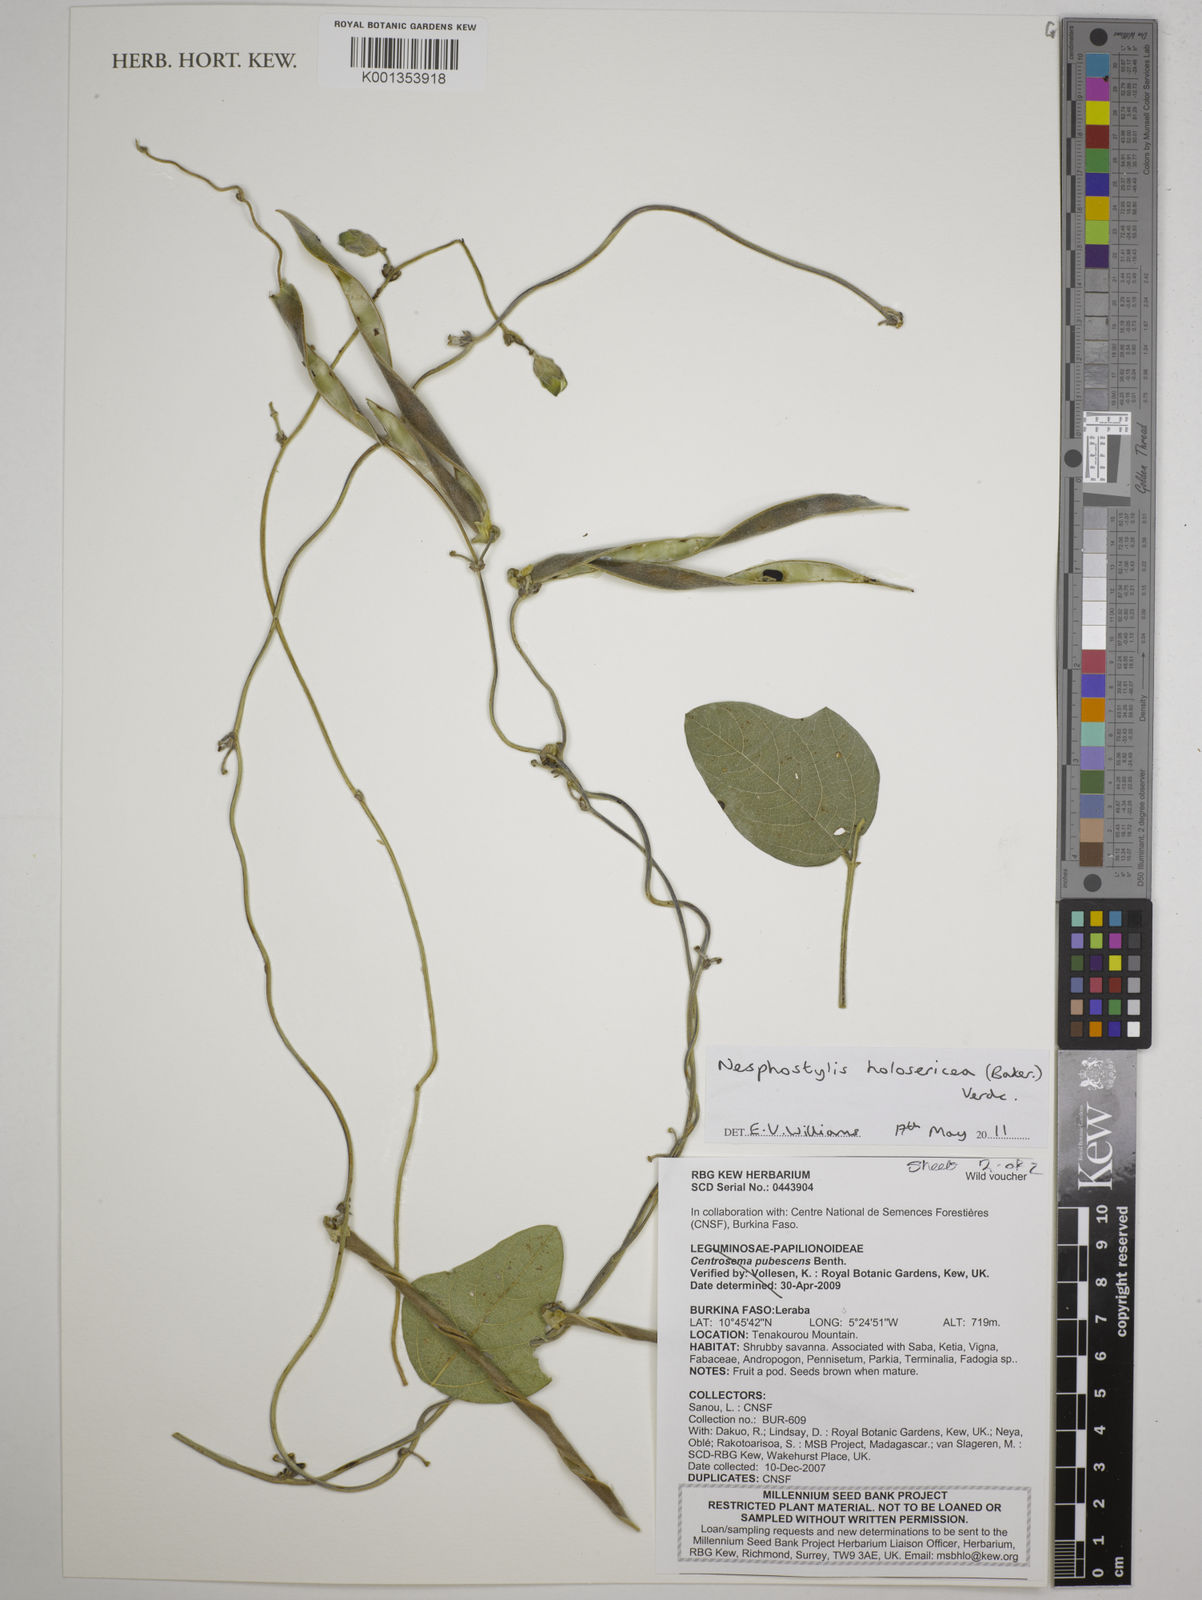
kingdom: Plantae
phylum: Tracheophyta
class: Magnoliopsida
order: Fabales
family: Fabaceae
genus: Nesphostylis
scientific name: Nesphostylis holosericea
